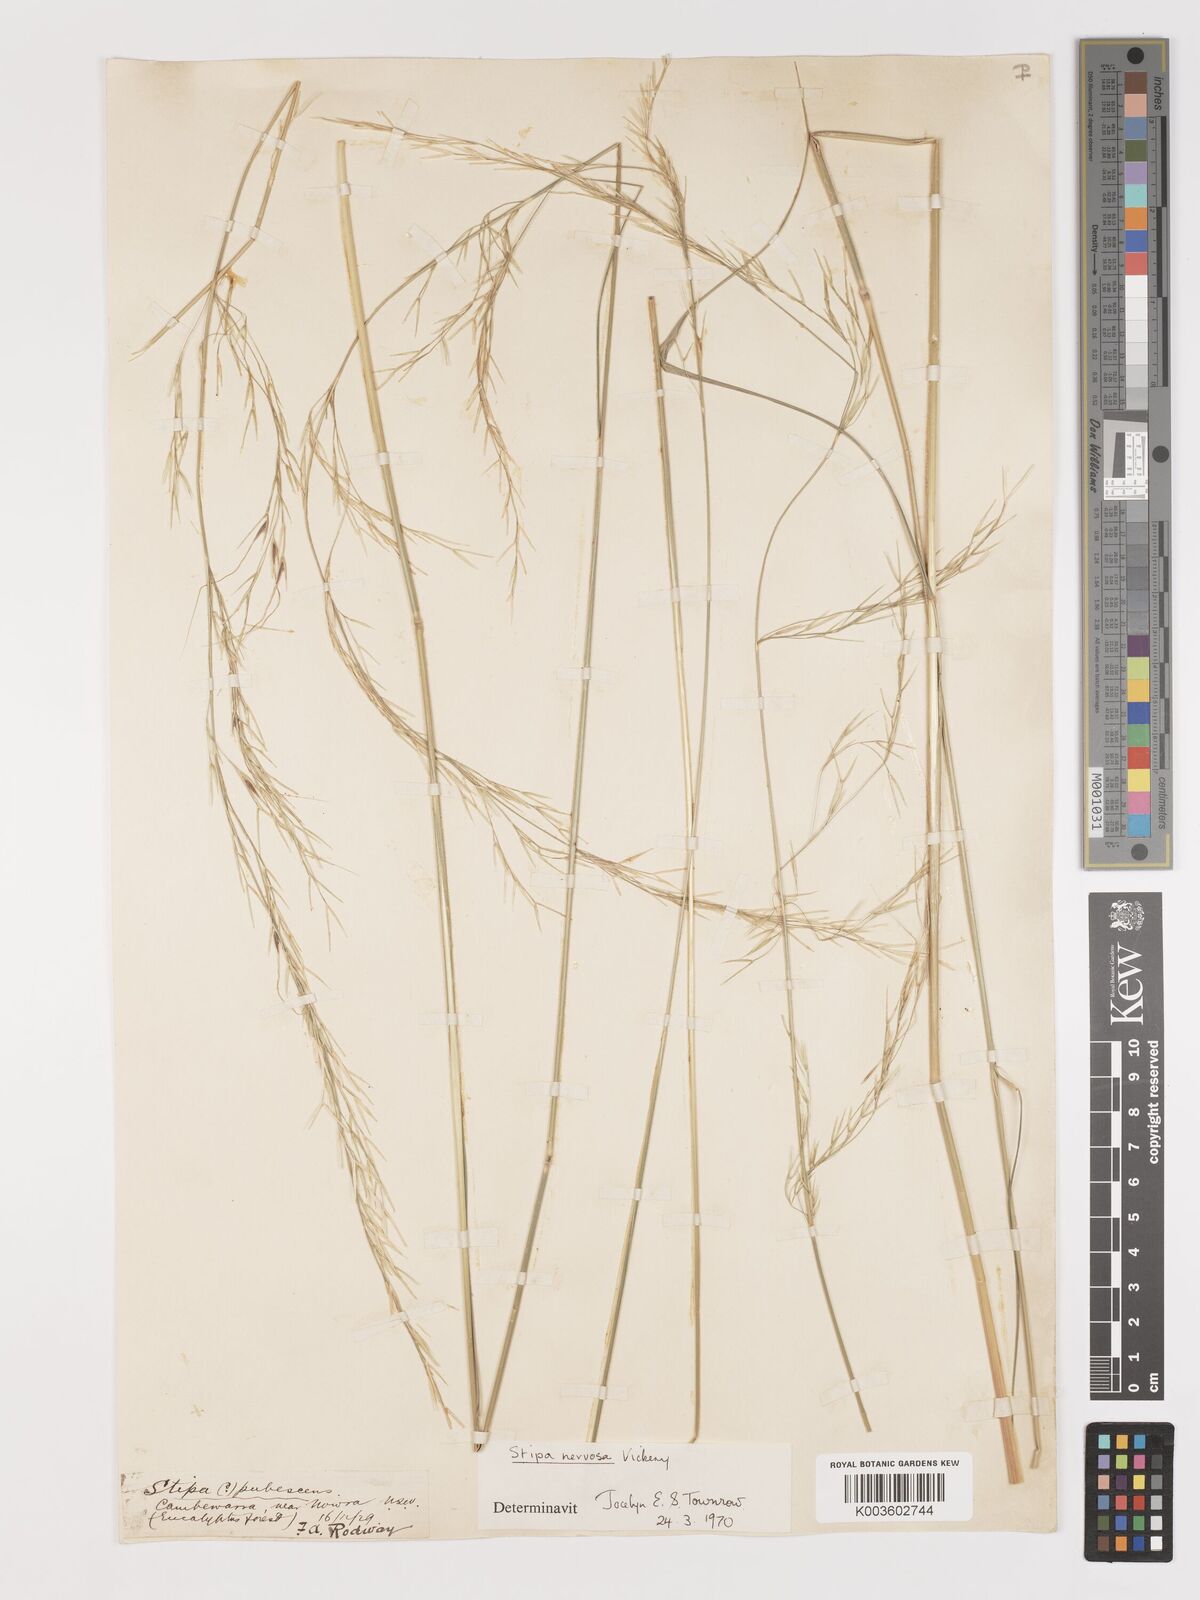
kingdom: Plantae
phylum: Tracheophyta
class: Liliopsida
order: Poales
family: Poaceae
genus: Austrostipa
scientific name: Austrostipa rudis
